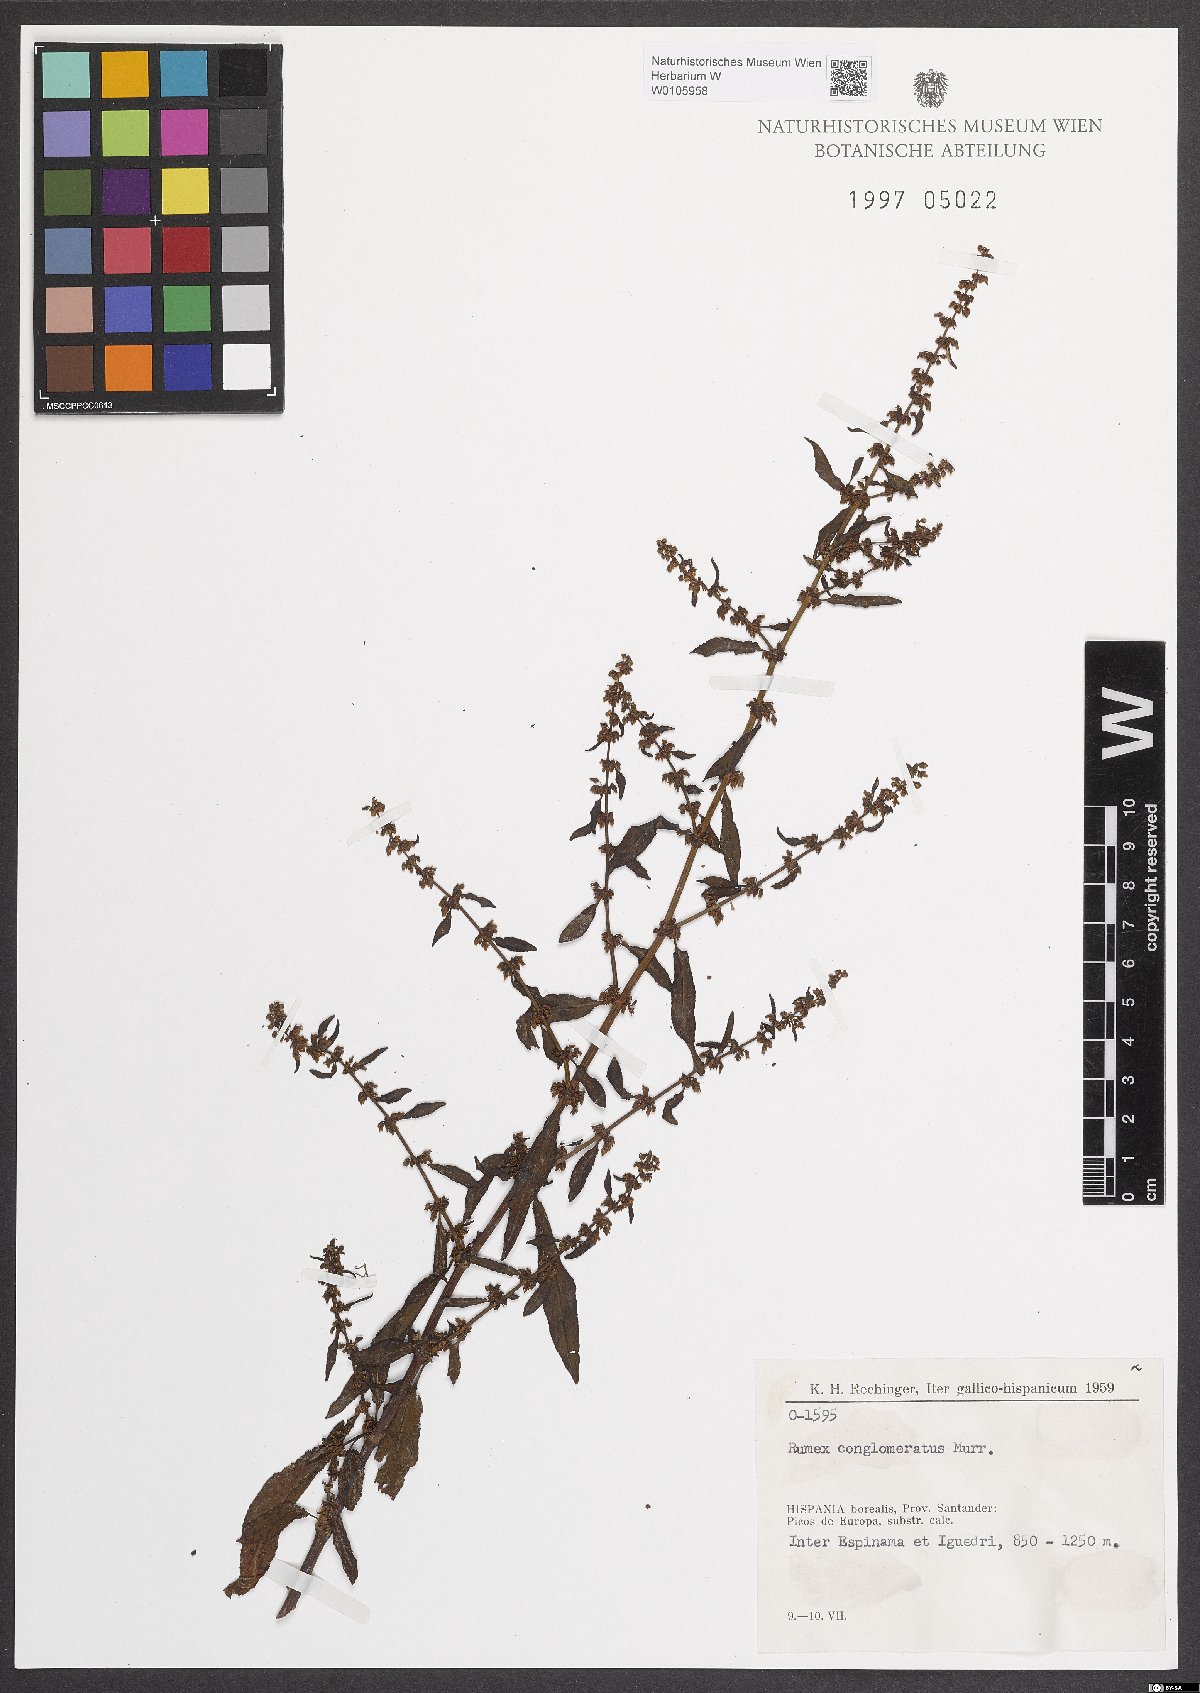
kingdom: Plantae
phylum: Tracheophyta
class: Magnoliopsida
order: Caryophyllales
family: Polygonaceae
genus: Rumex
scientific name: Rumex conglomeratus
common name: Clustered dock
